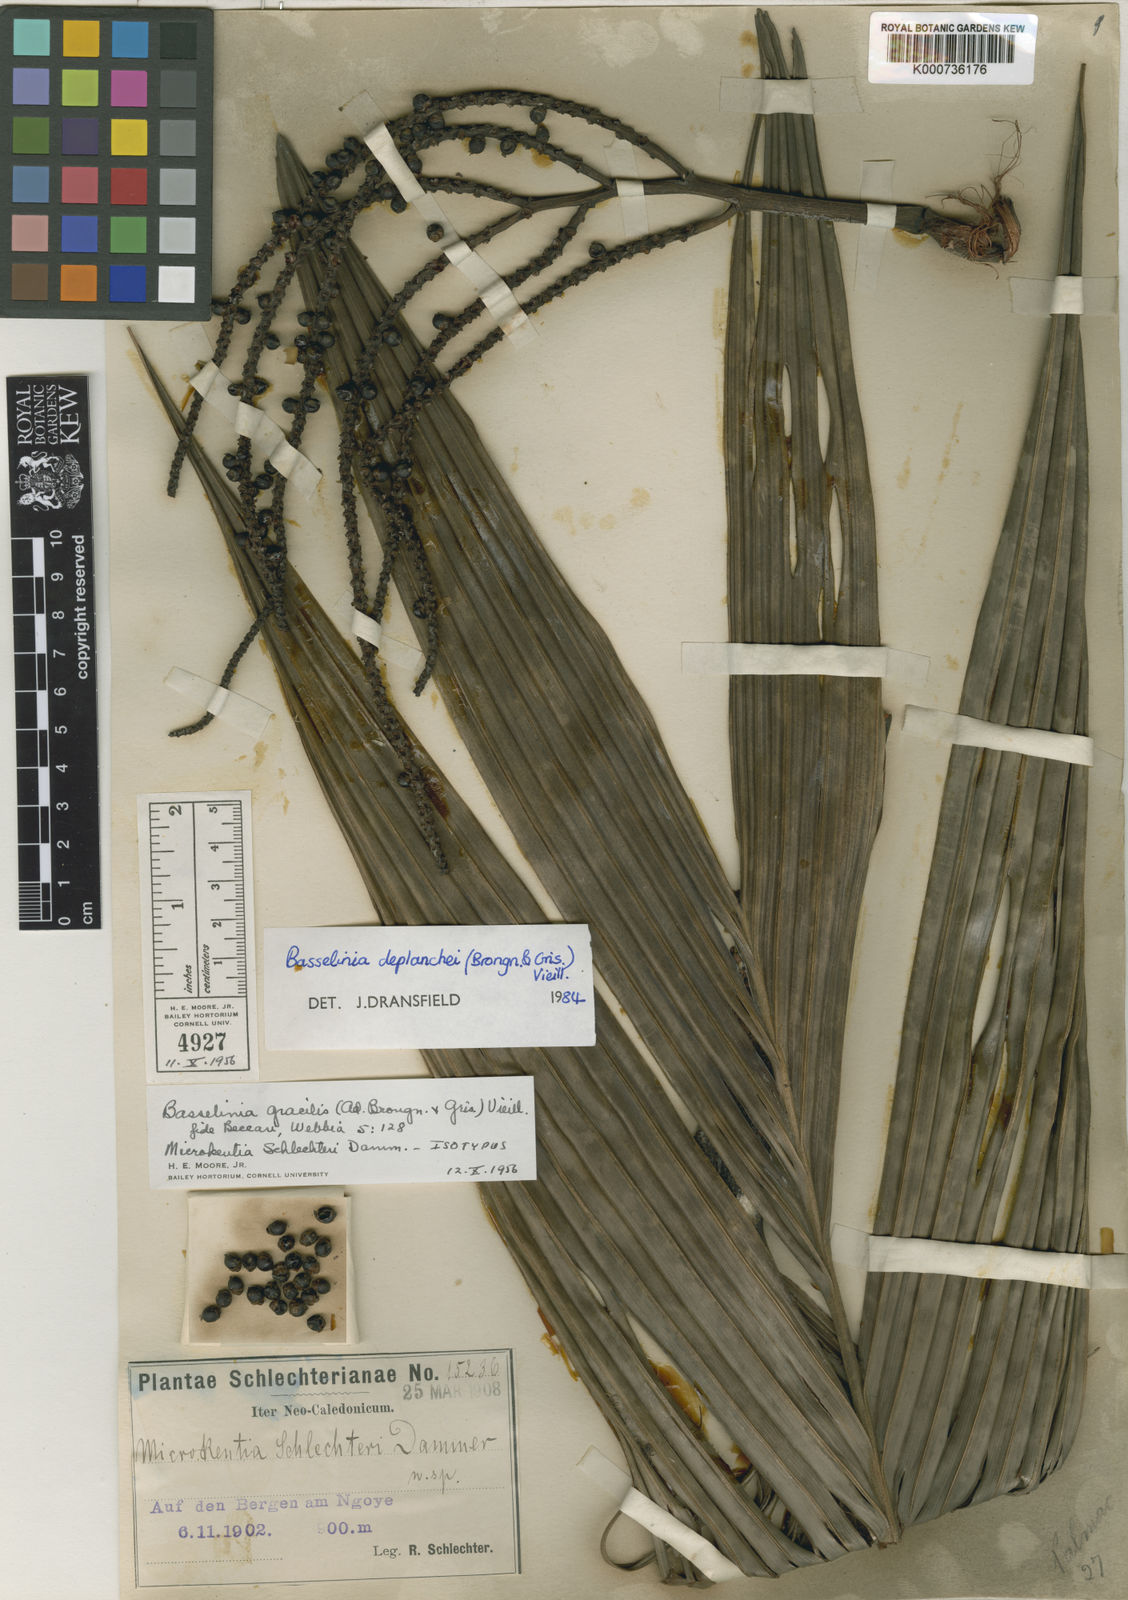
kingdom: Plantae
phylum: Tracheophyta
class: Liliopsida
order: Arecales
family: Arecaceae
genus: Basselinia
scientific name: Basselinia deplanchei
